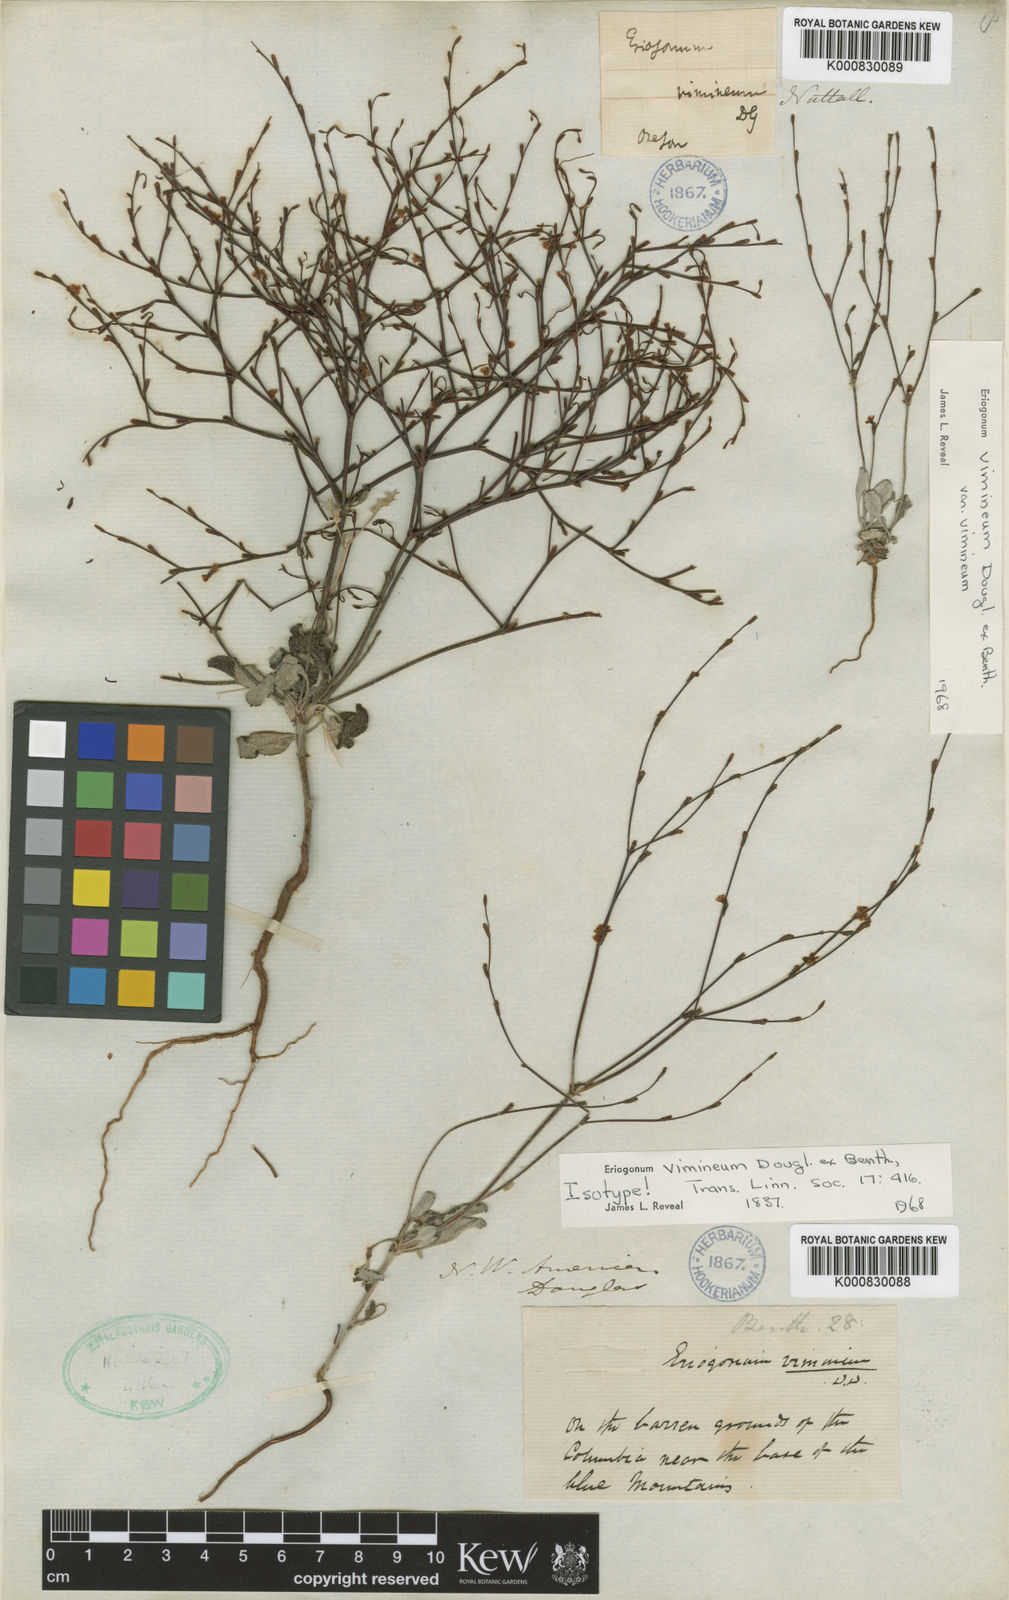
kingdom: Plantae
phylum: Tracheophyta
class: Magnoliopsida
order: Caryophyllales
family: Polygonaceae
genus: Eriogonum
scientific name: Eriogonum vimineum
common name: Wicker buckwheat
